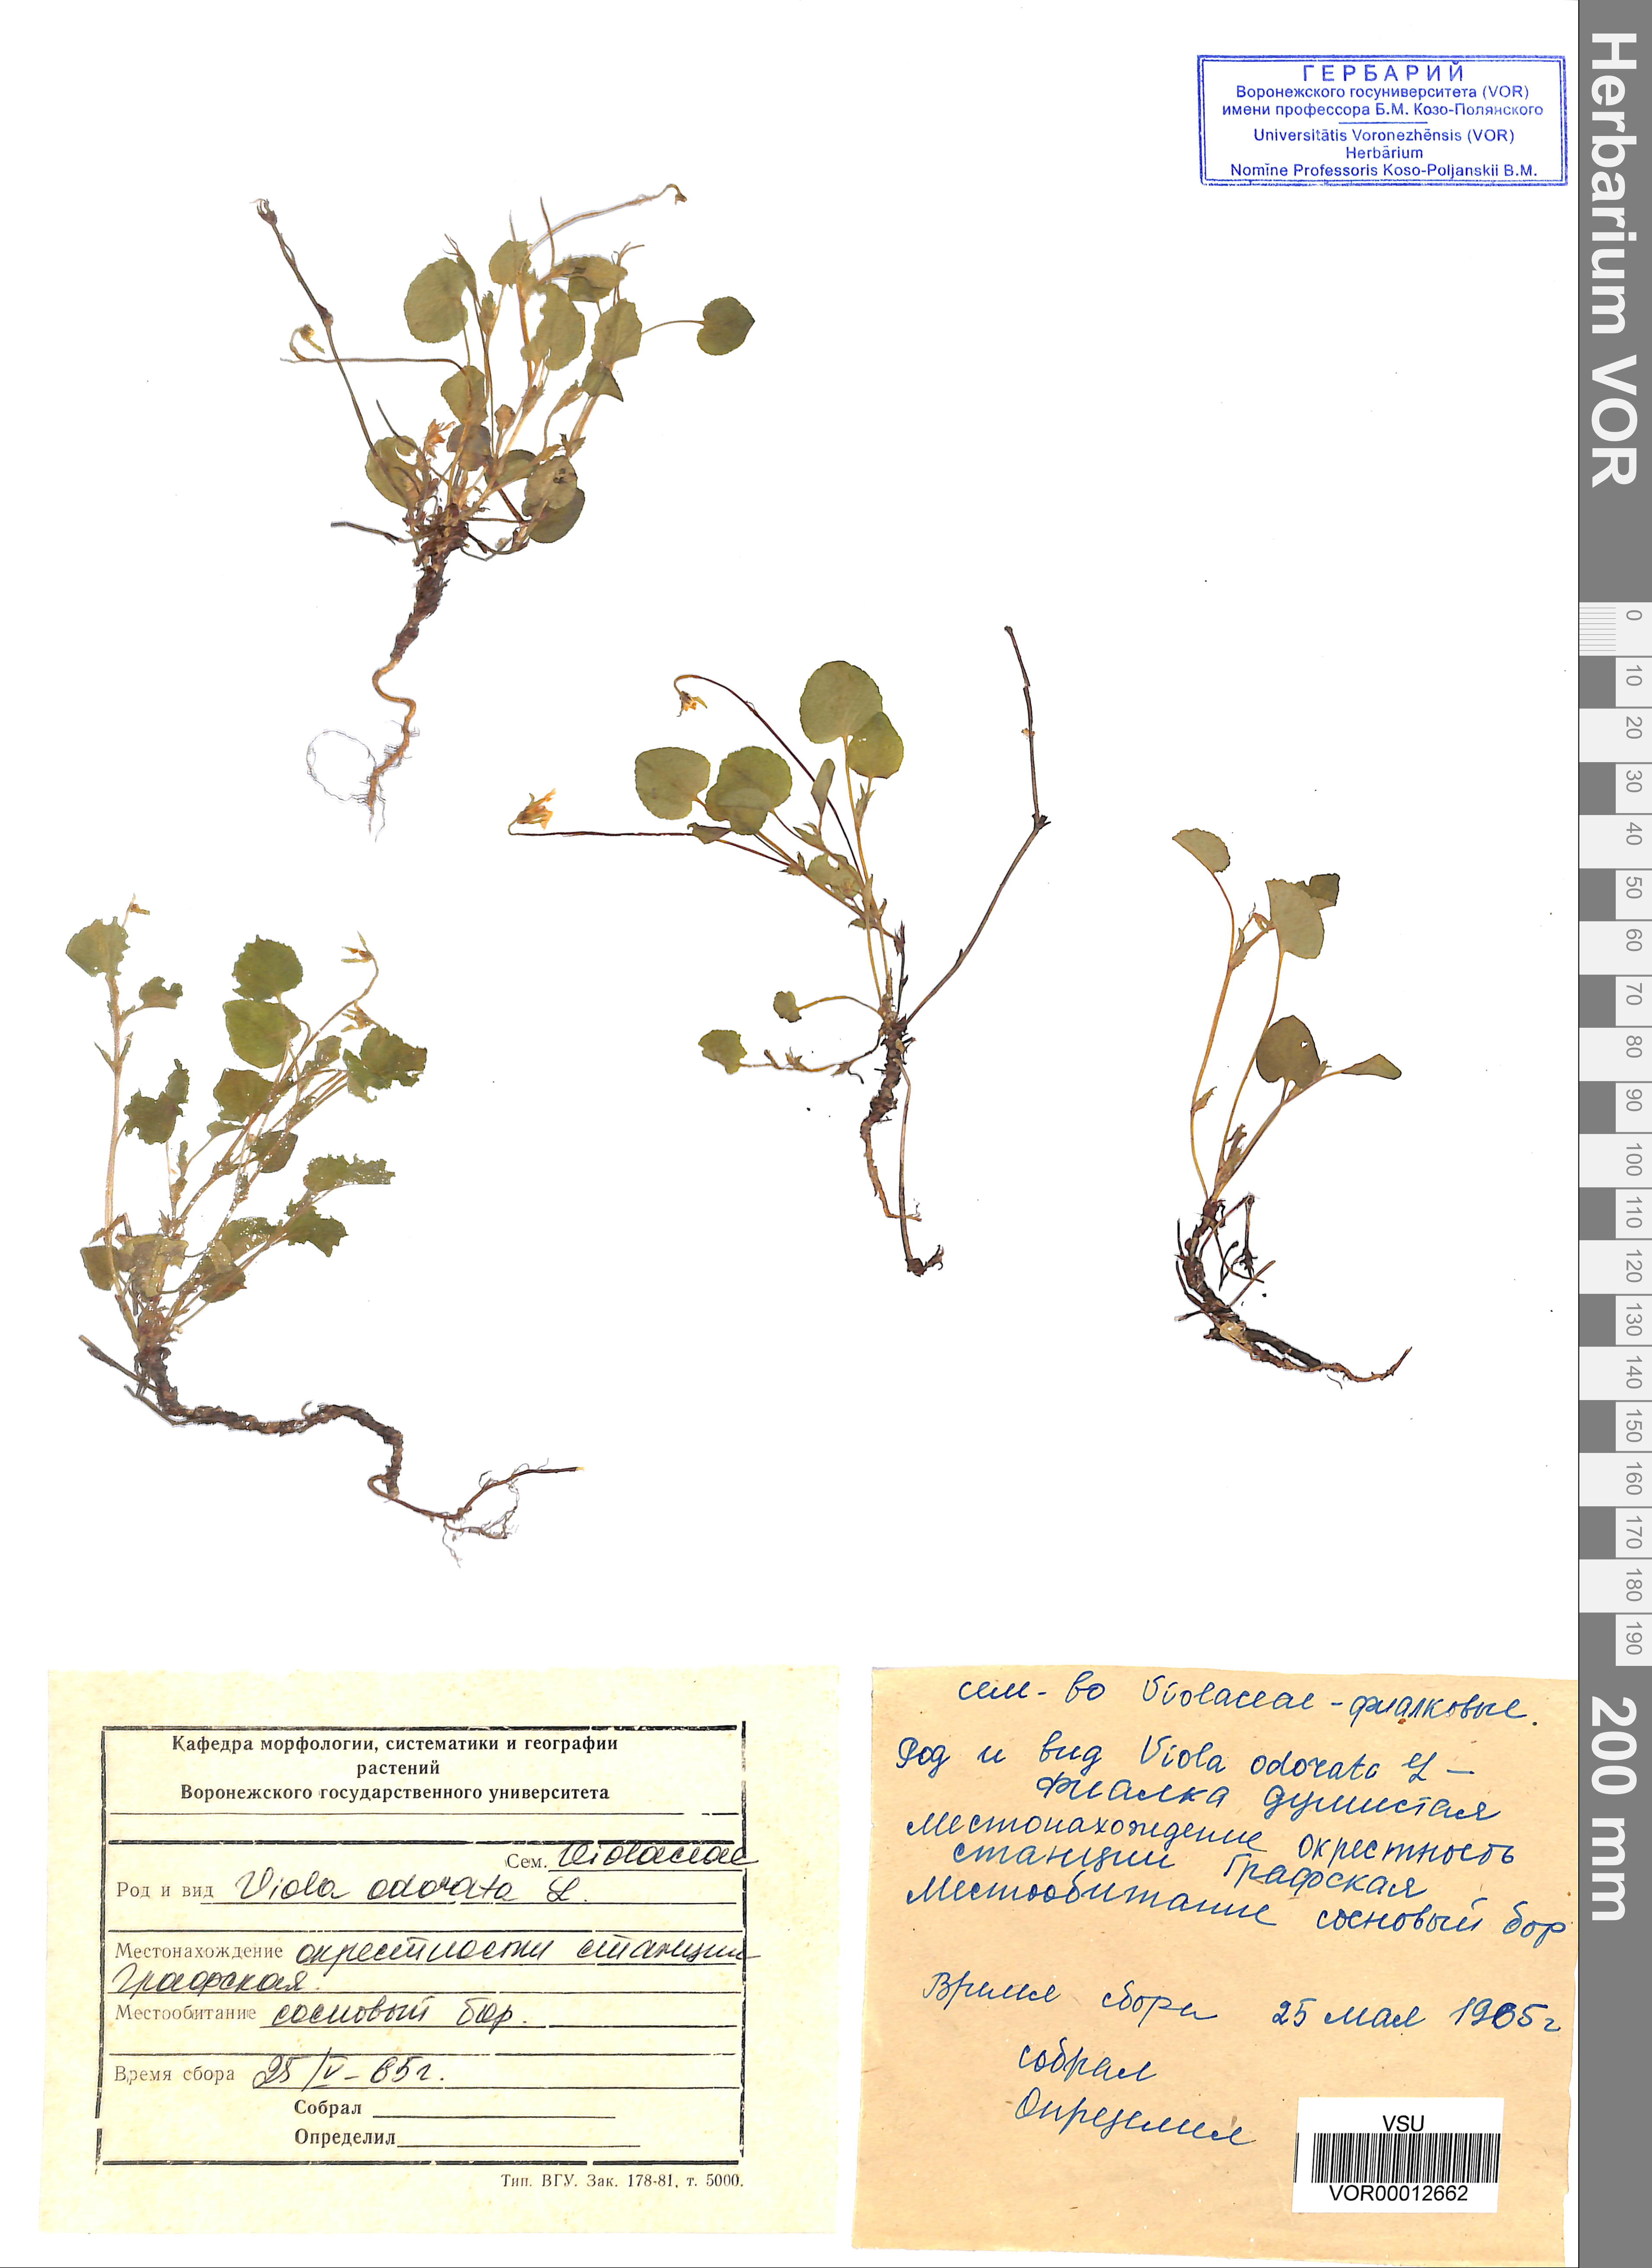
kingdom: Plantae
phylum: Tracheophyta
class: Magnoliopsida
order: Malpighiales
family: Violaceae
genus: Viola
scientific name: Viola odorata
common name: Sweet violet
